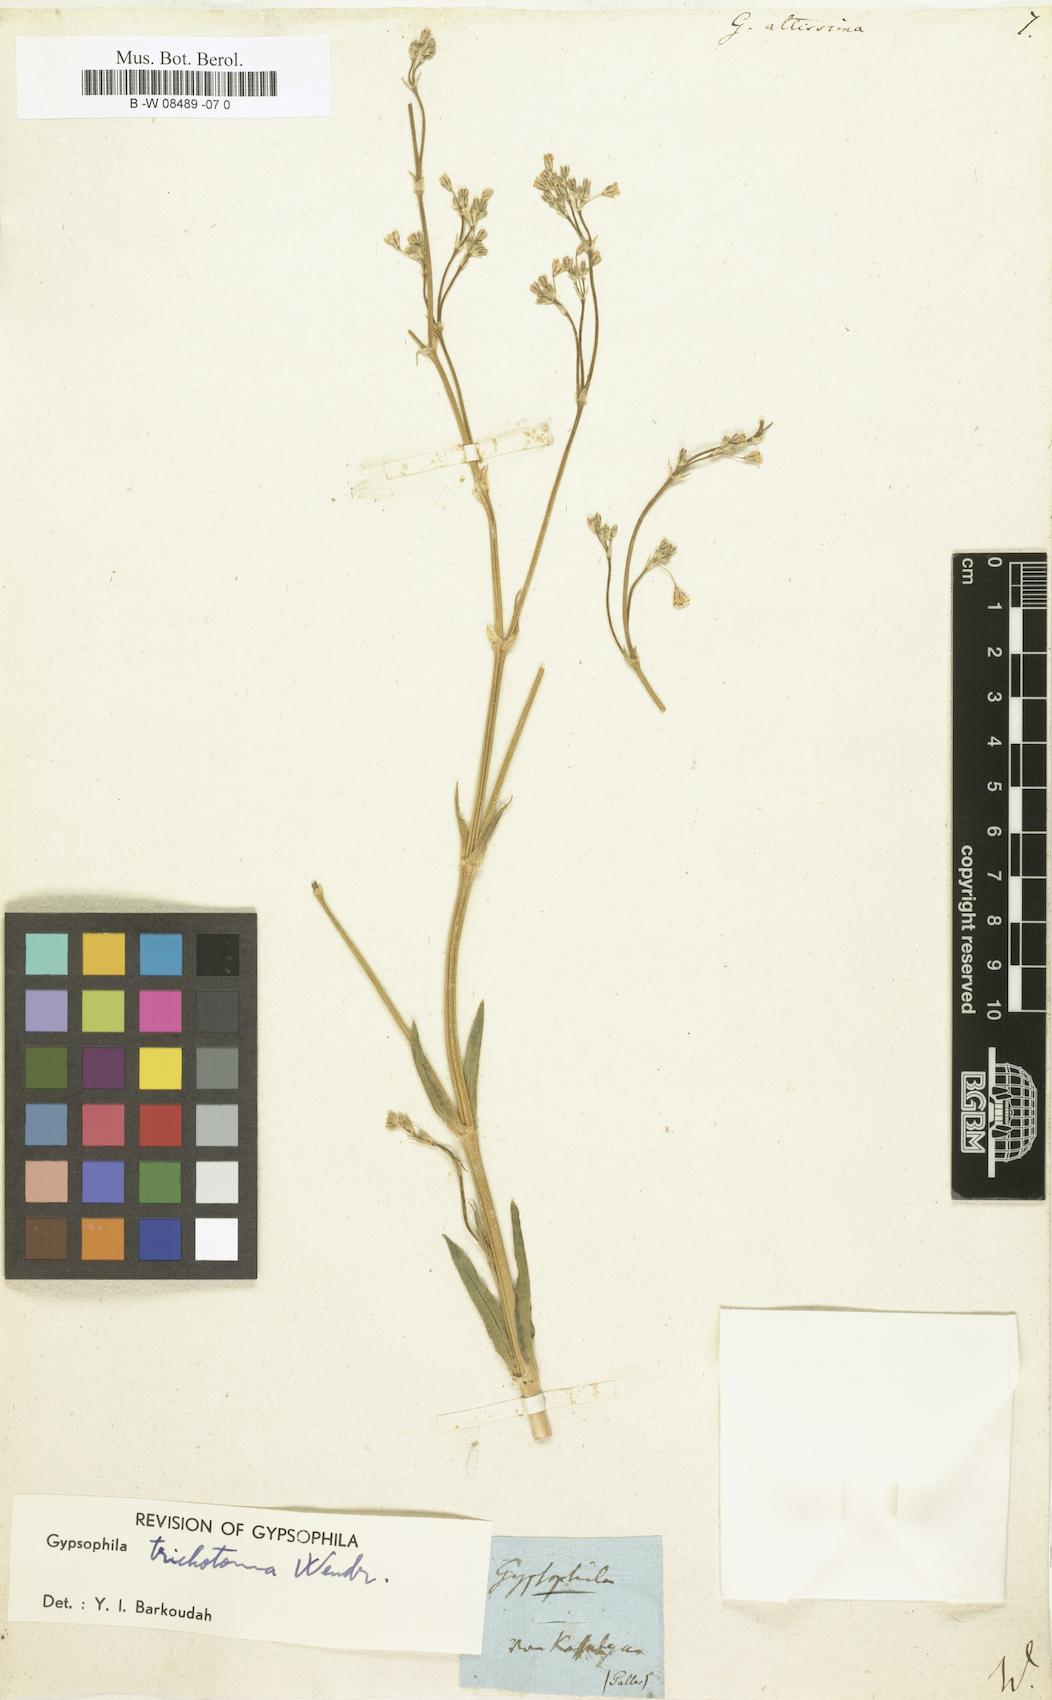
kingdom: Plantae
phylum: Tracheophyta
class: Magnoliopsida
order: Caryophyllales
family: Caryophyllaceae
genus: Gypsophila
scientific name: Gypsophila altissima
